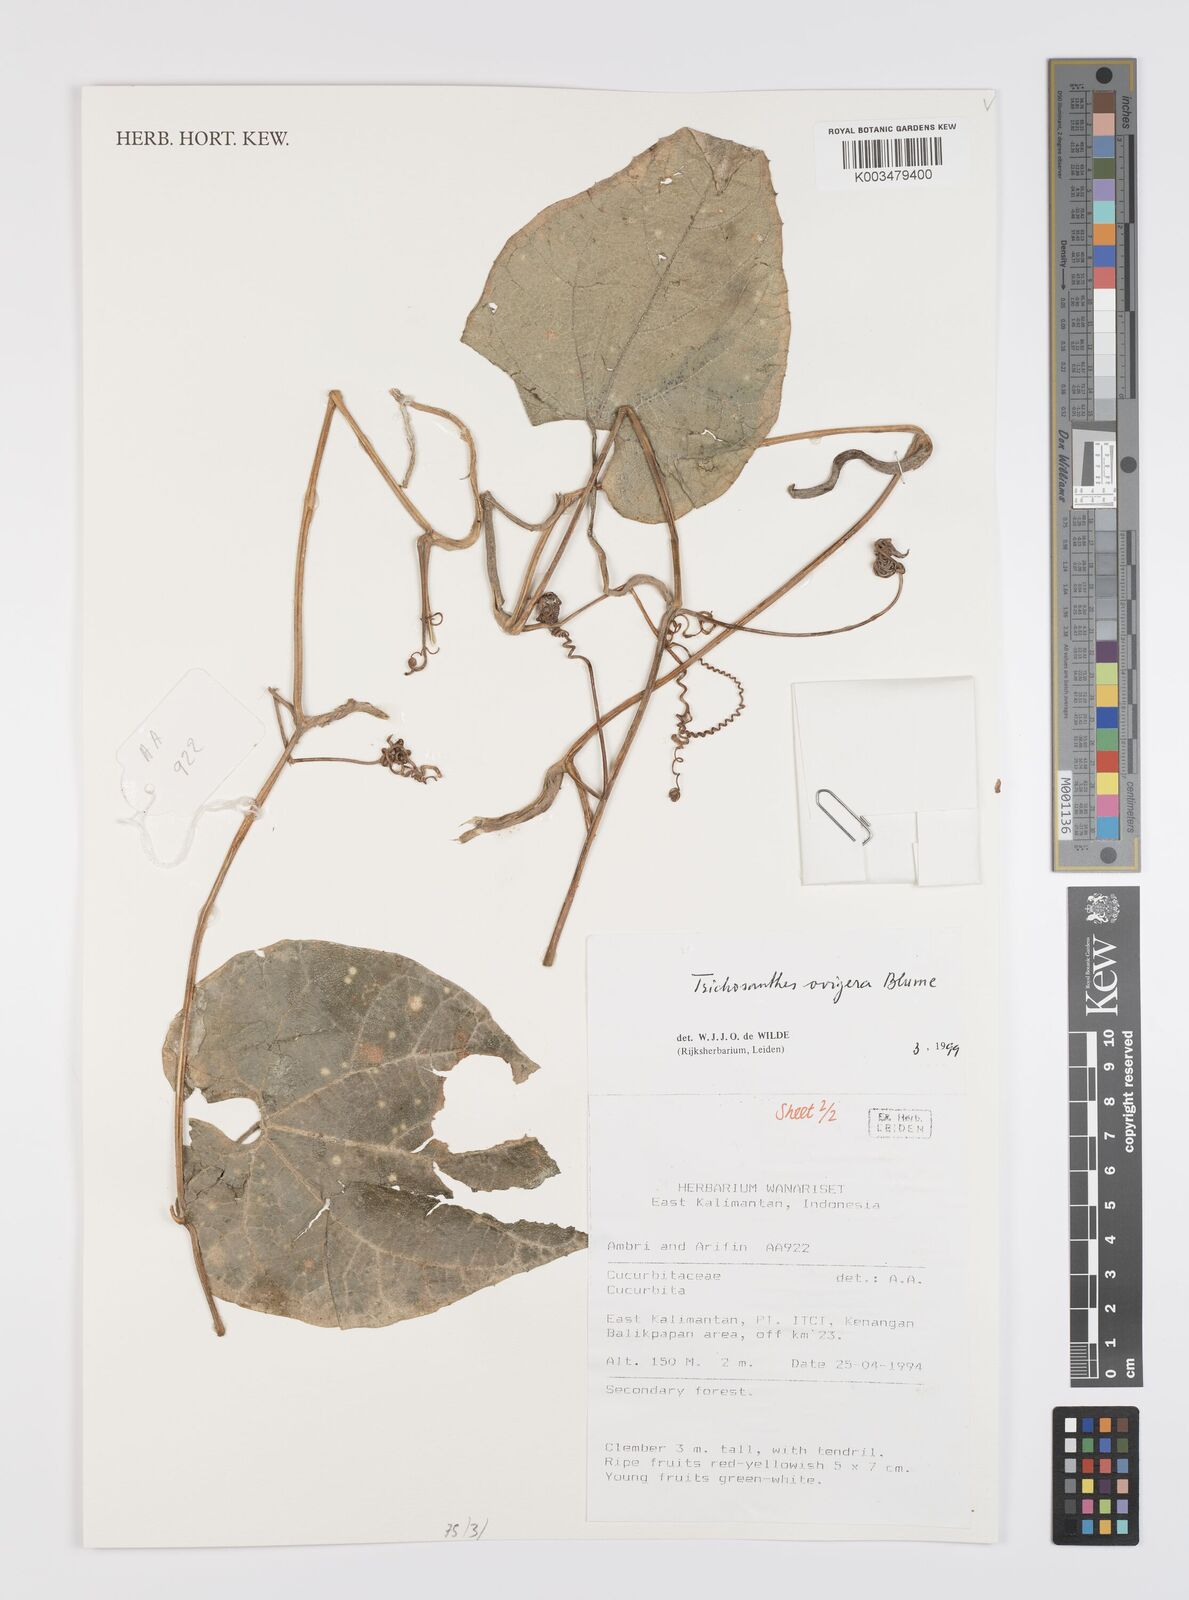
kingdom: Plantae
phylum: Tracheophyta
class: Magnoliopsida
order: Cucurbitales
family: Cucurbitaceae
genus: Trichosanthes
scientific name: Trichosanthes ovigera
